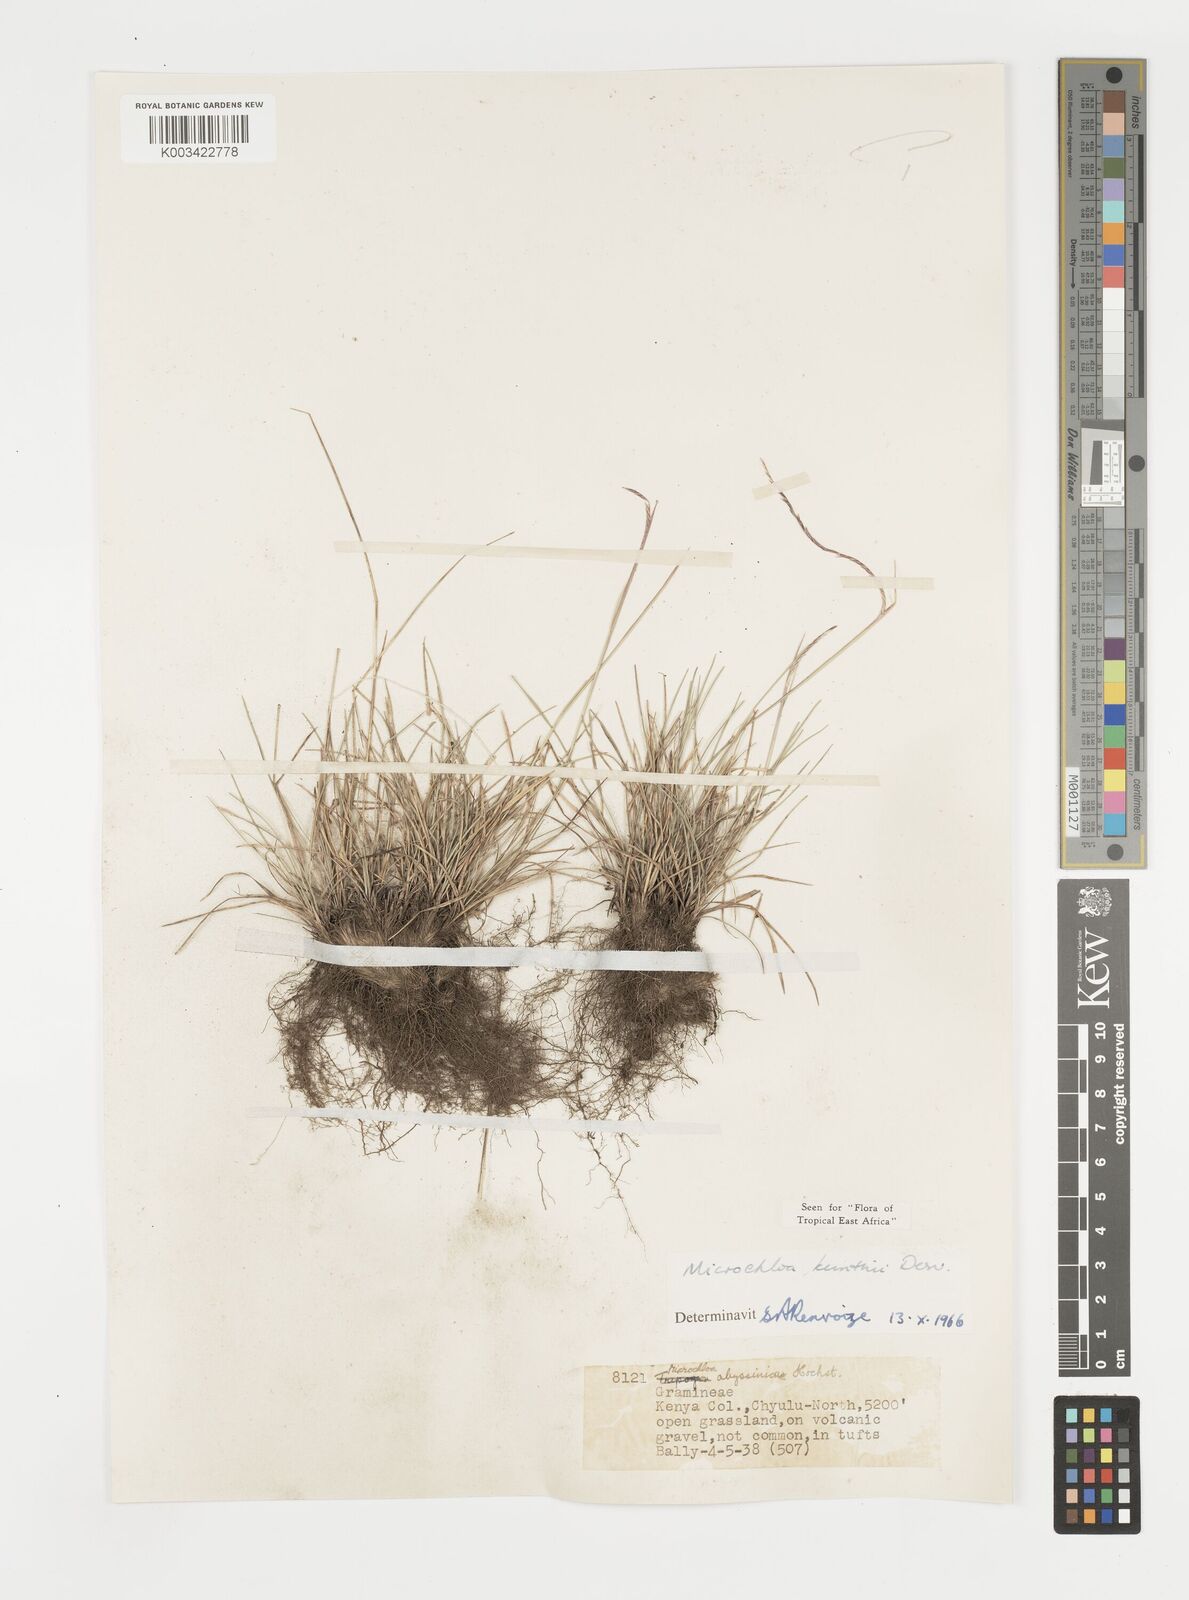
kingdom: Plantae
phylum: Tracheophyta
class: Liliopsida
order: Poales
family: Poaceae
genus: Microchloa
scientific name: Microchloa kunthii
